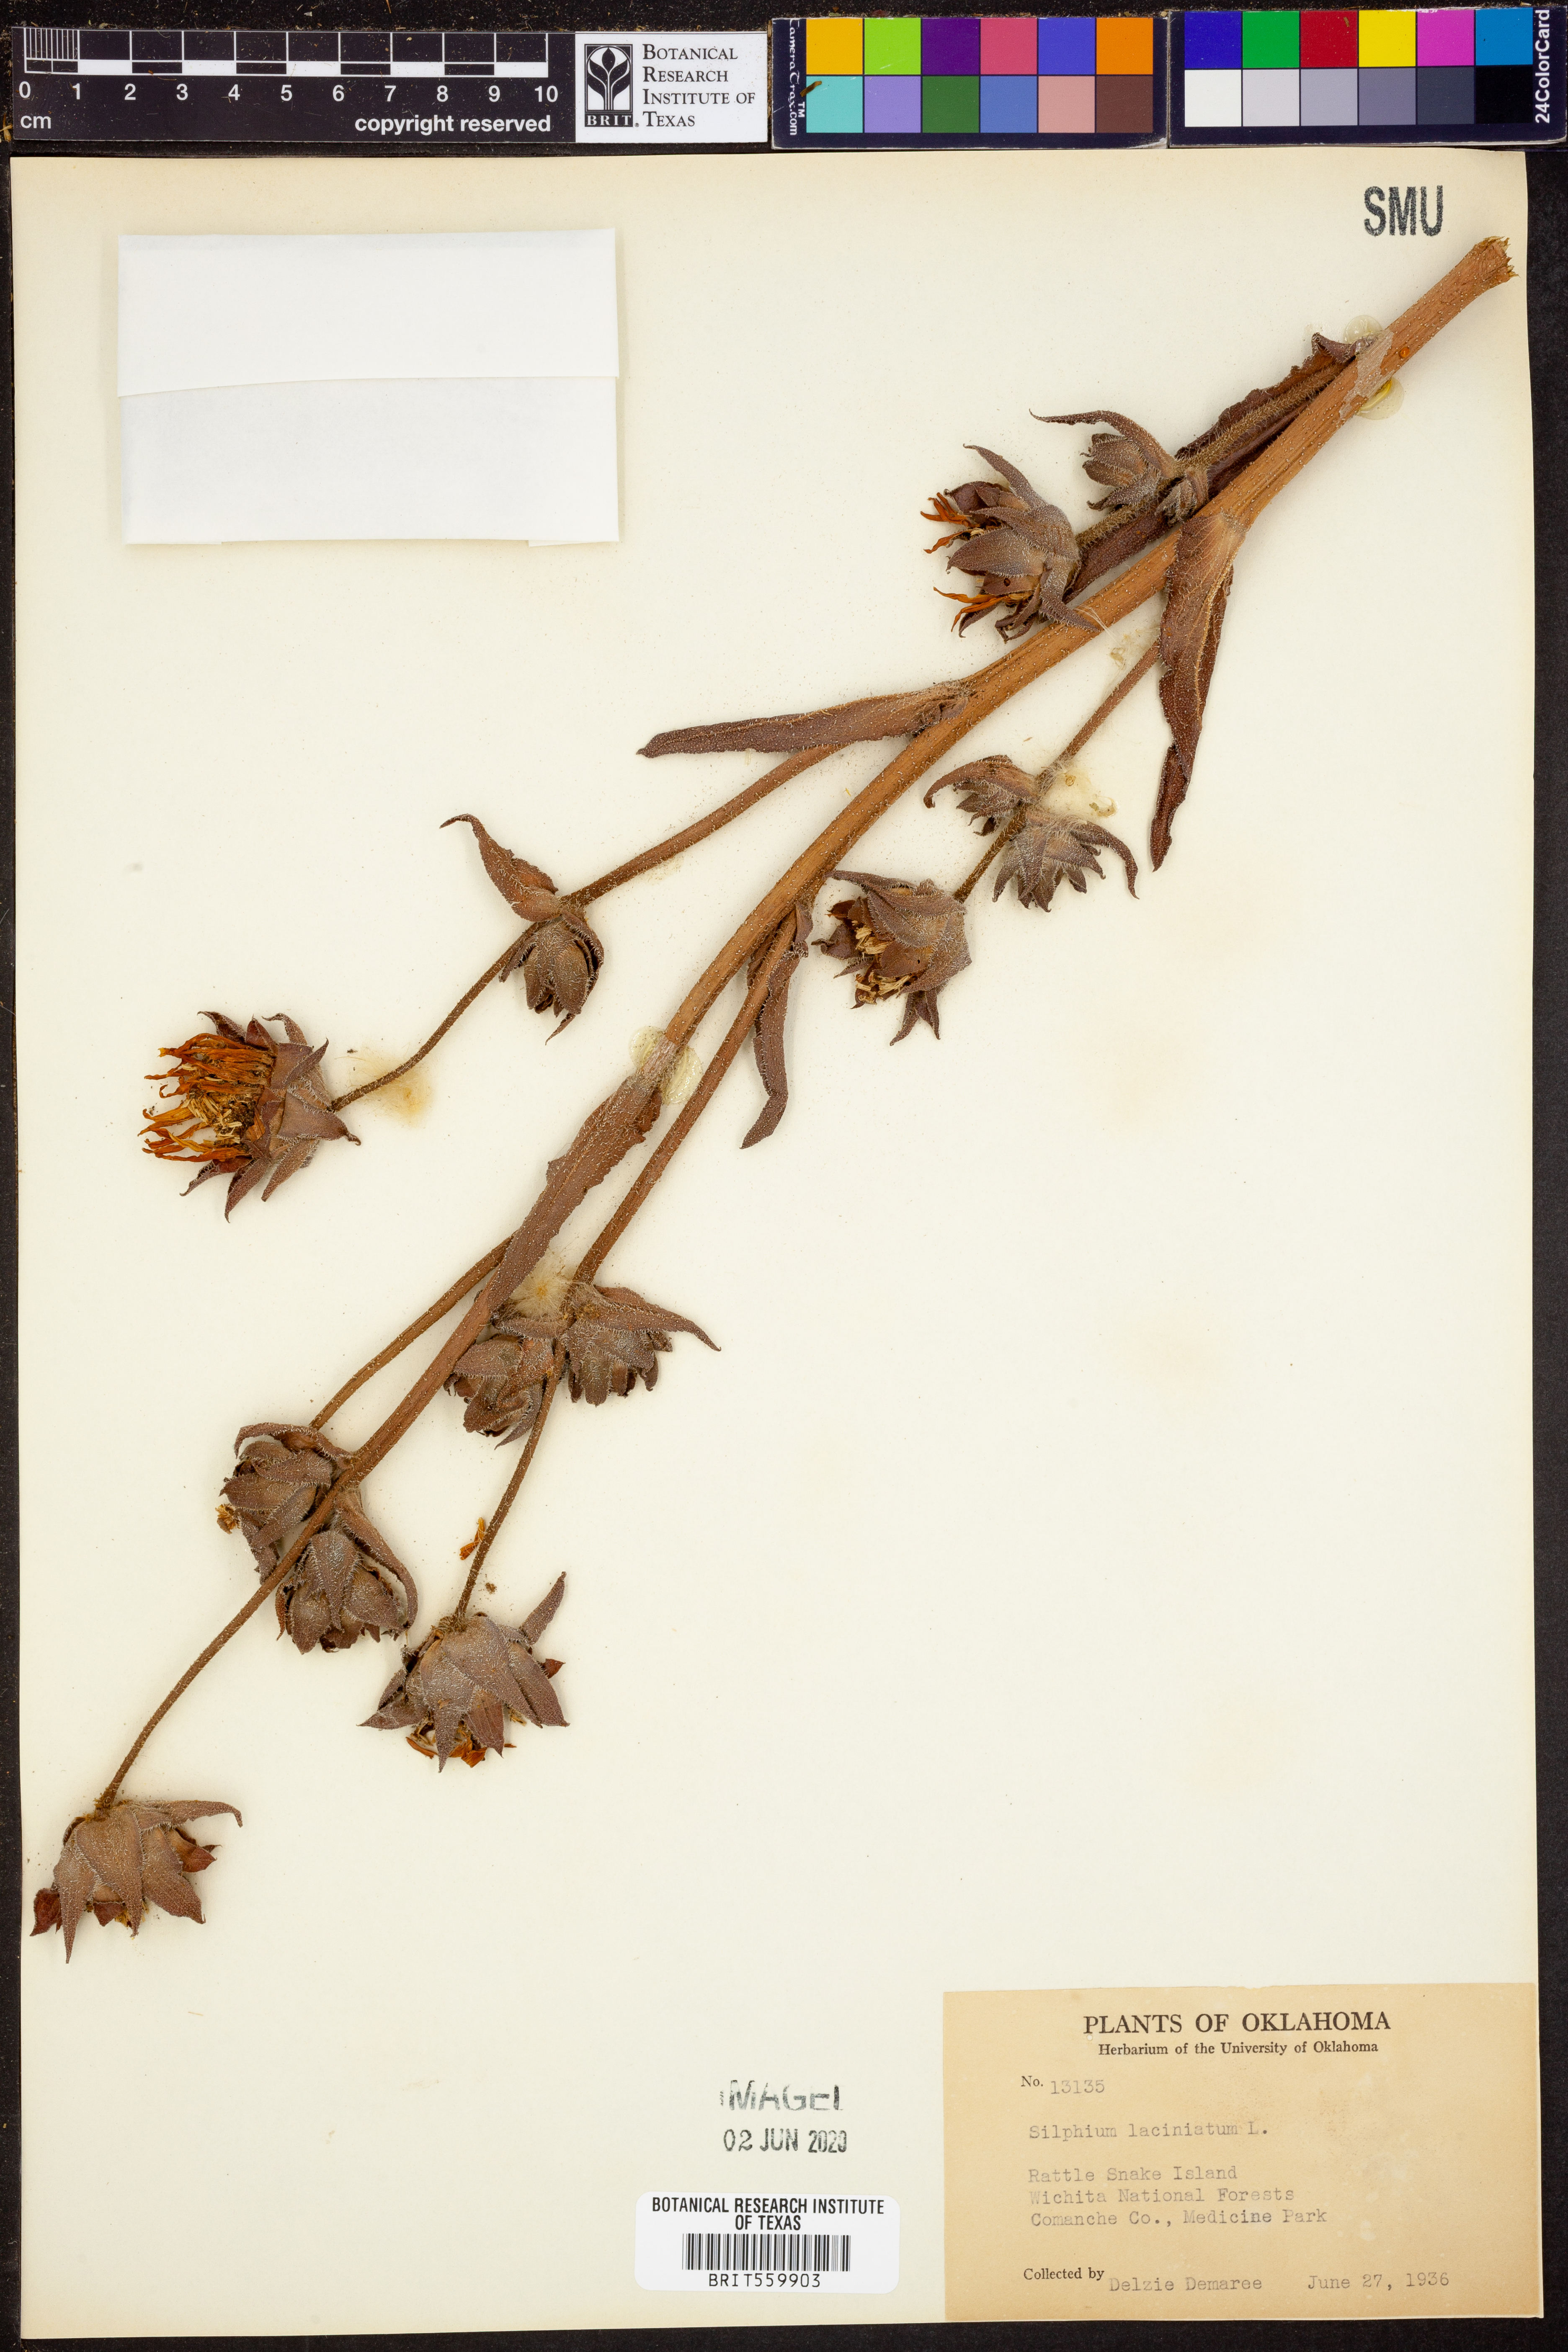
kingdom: Plantae
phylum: Tracheophyta
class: Magnoliopsida
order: Asterales
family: Asteraceae
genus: Silphium
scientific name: Silphium laciniatum
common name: Polarplant
